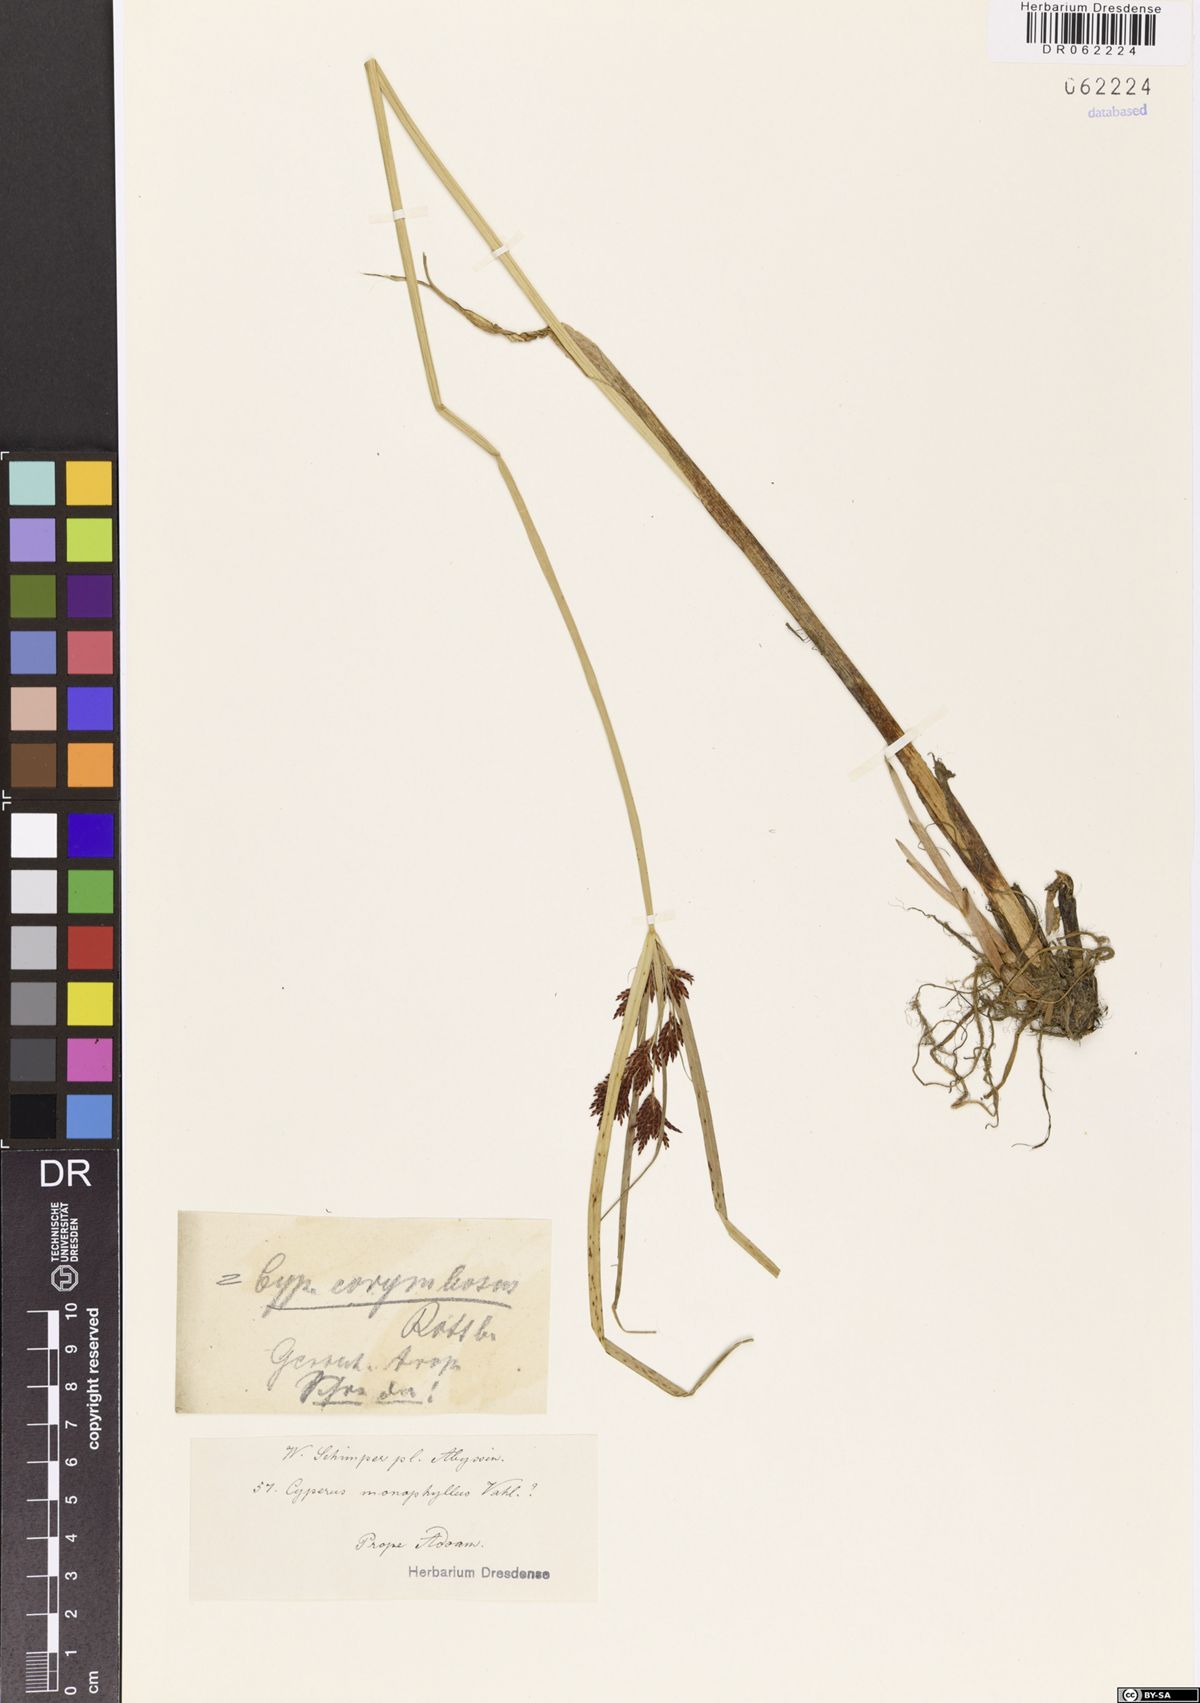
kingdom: Plantae
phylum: Tracheophyta
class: Liliopsida
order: Poales
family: Cyperaceae
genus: Cyperus
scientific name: Cyperus corymbosus
